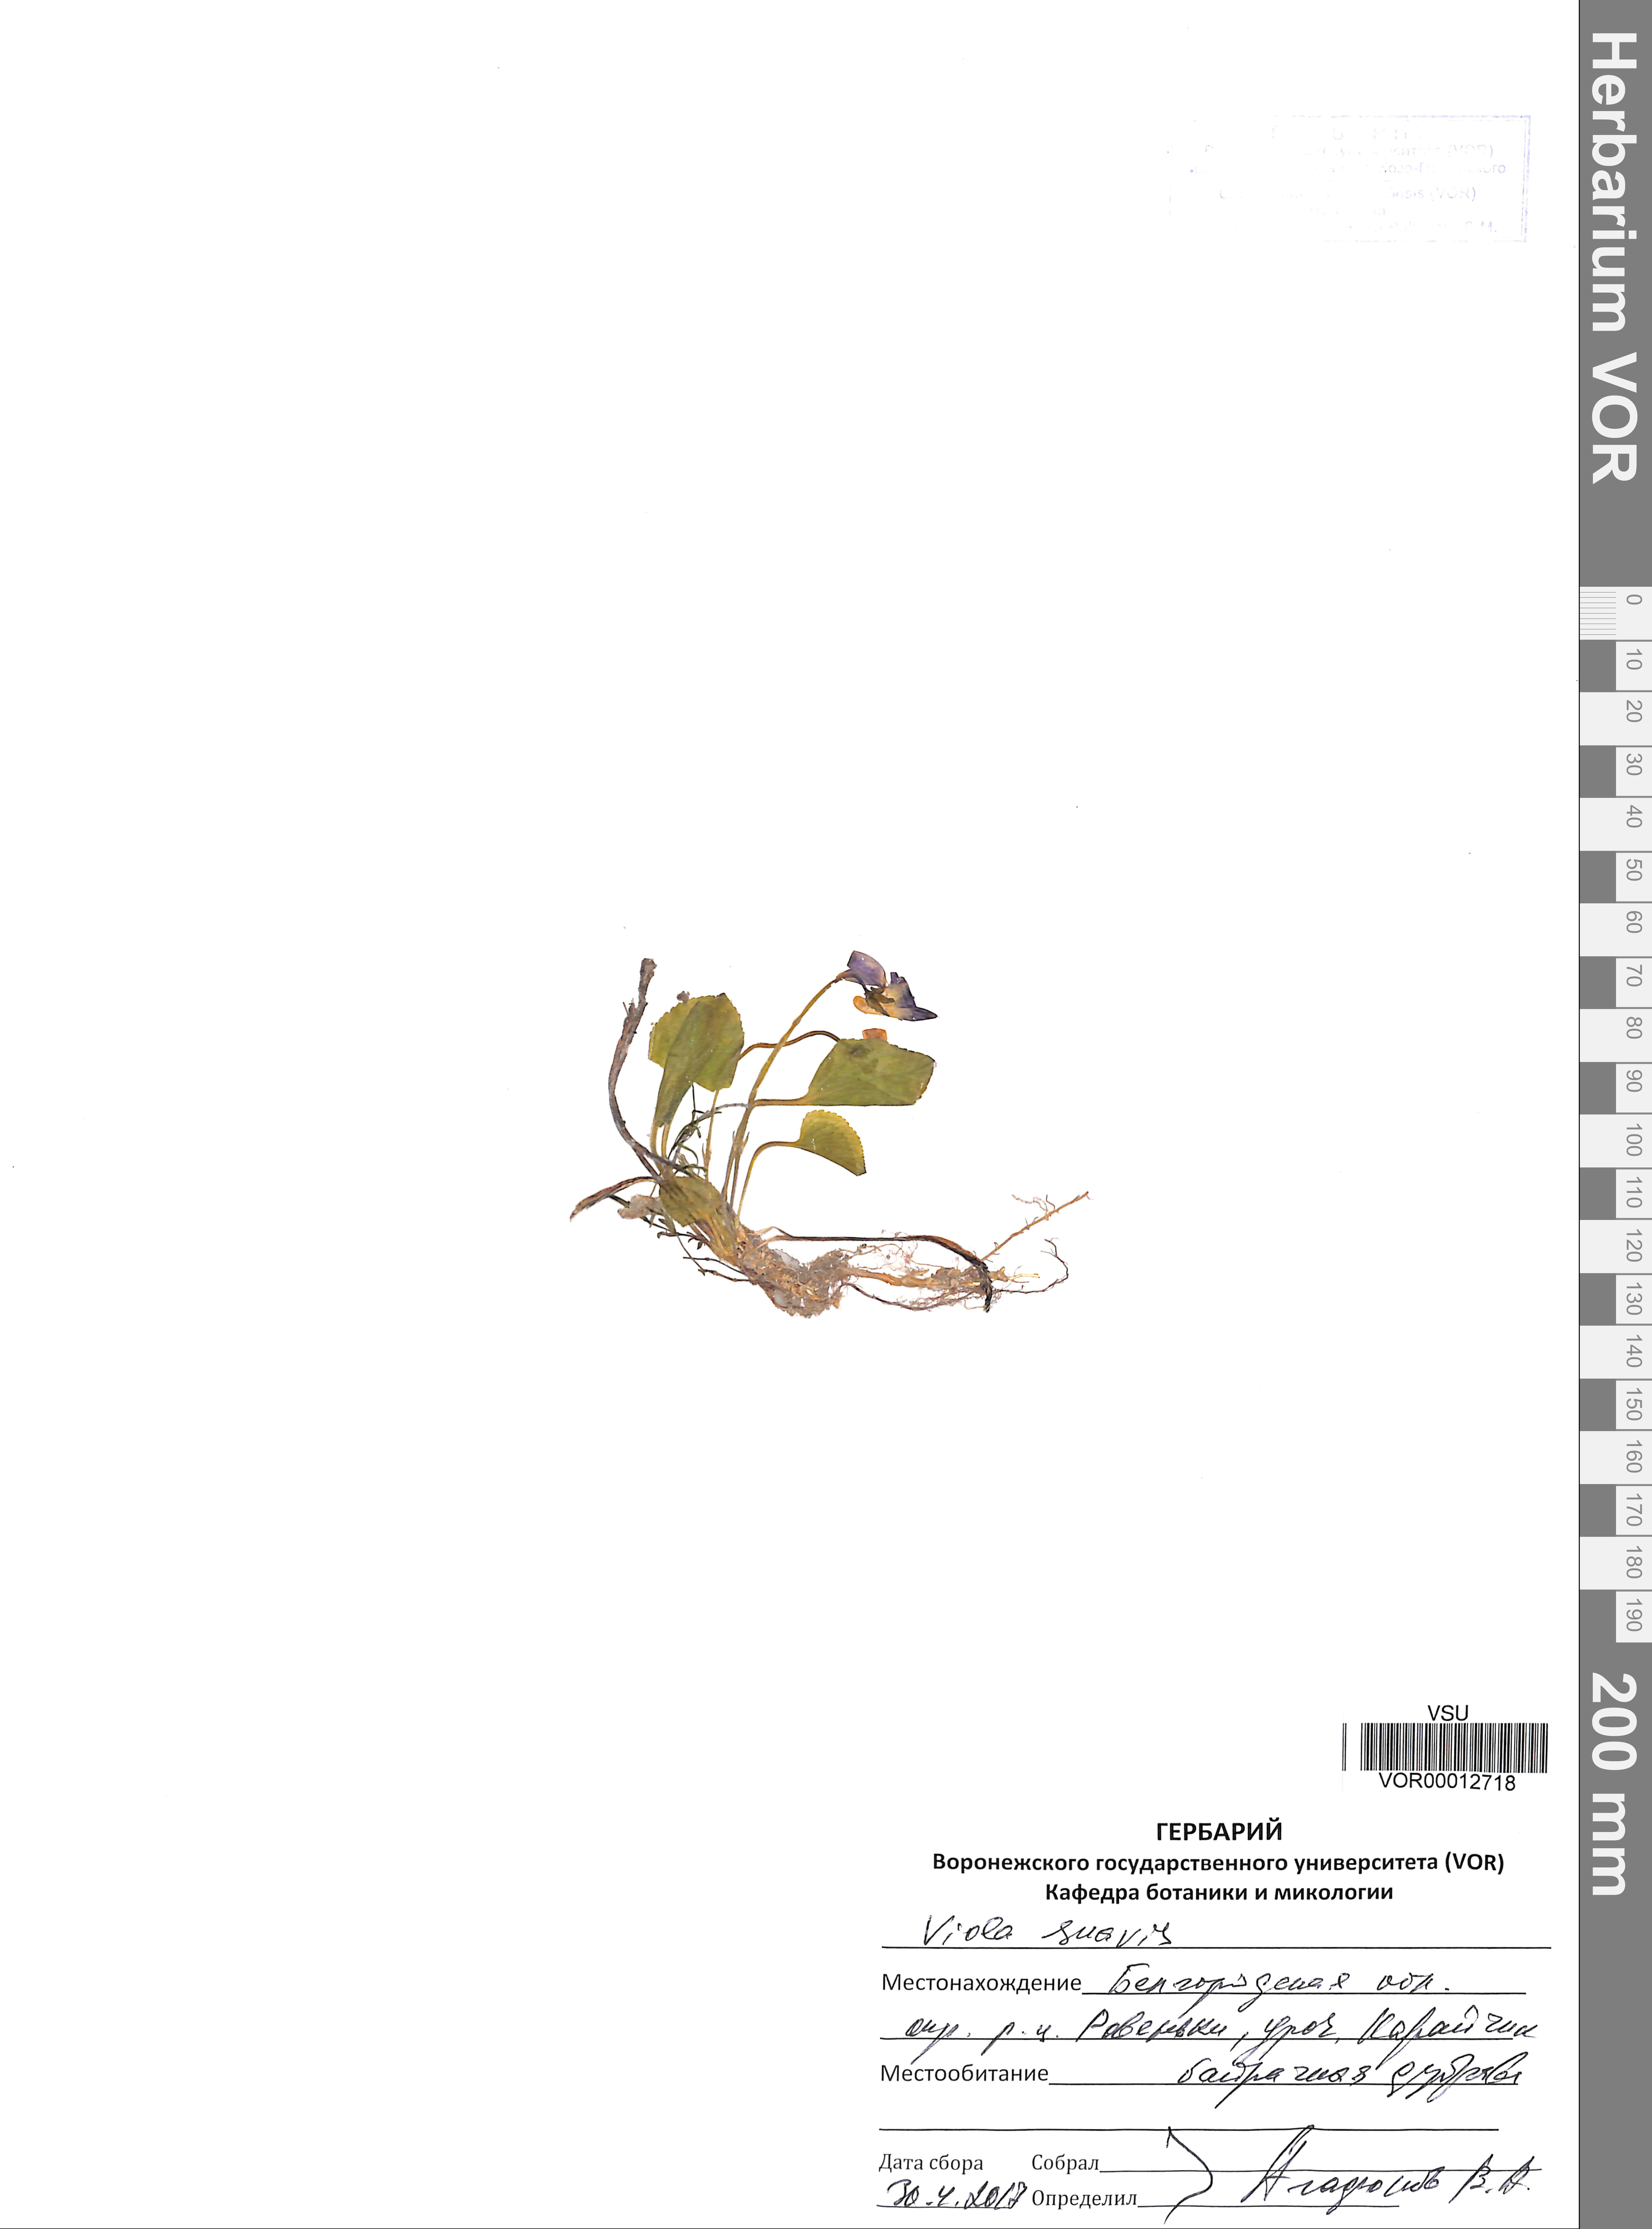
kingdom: Plantae
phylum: Tracheophyta
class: Magnoliopsida
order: Malpighiales
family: Violaceae
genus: Viola
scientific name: Viola suavis
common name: Russian violet
